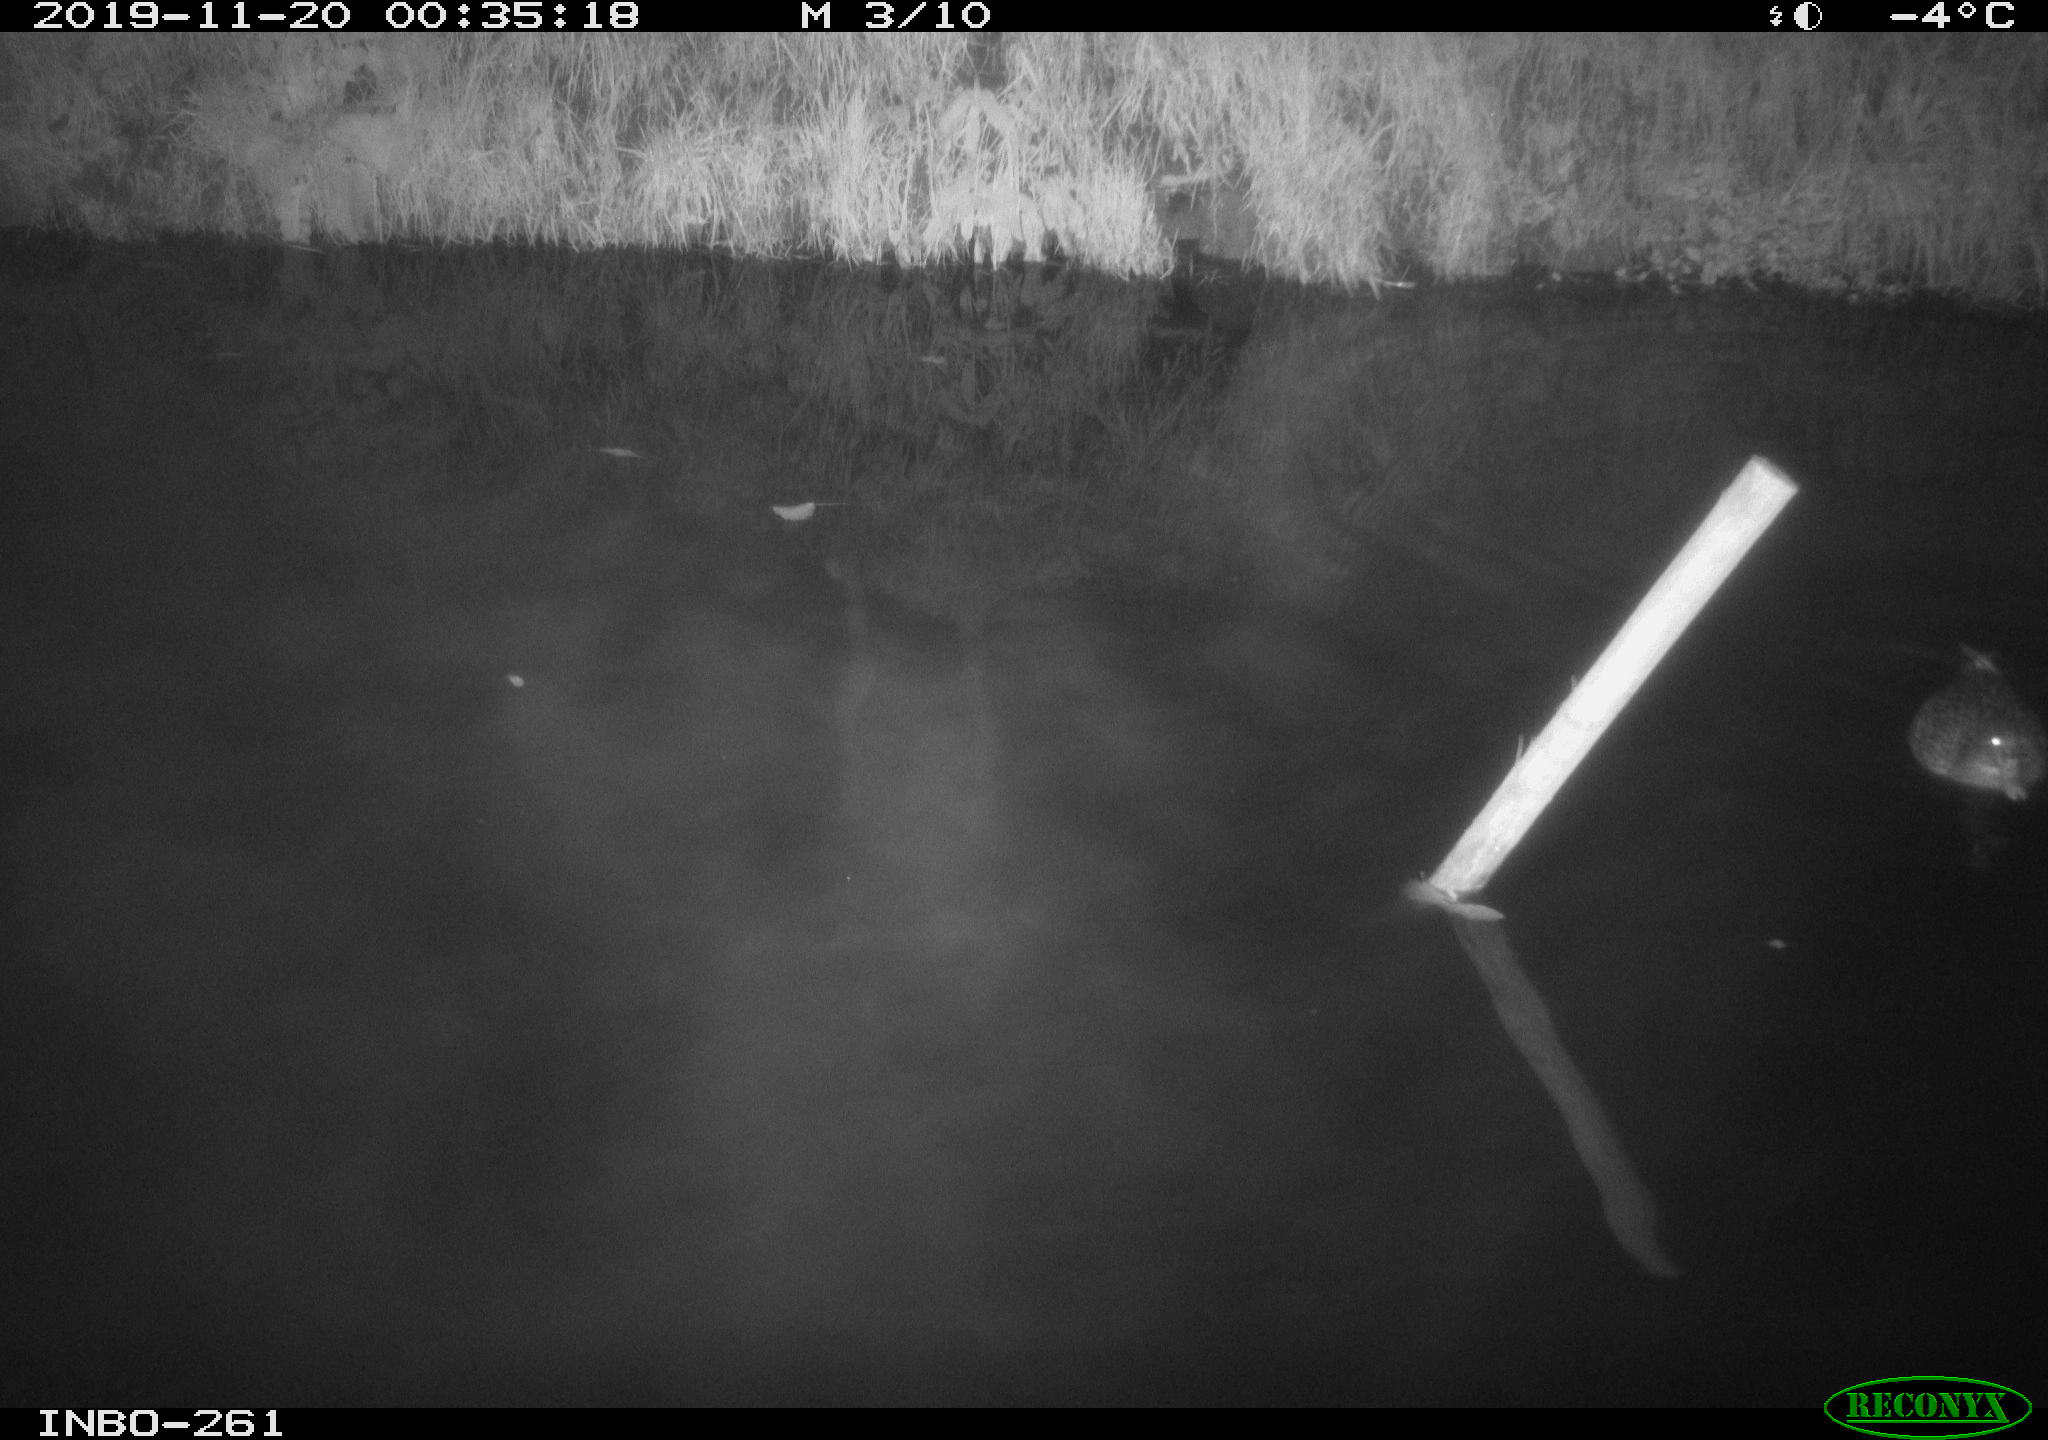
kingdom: Animalia
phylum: Chordata
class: Aves
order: Anseriformes
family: Anatidae
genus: Anas
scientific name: Anas platyrhynchos
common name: Mallard
